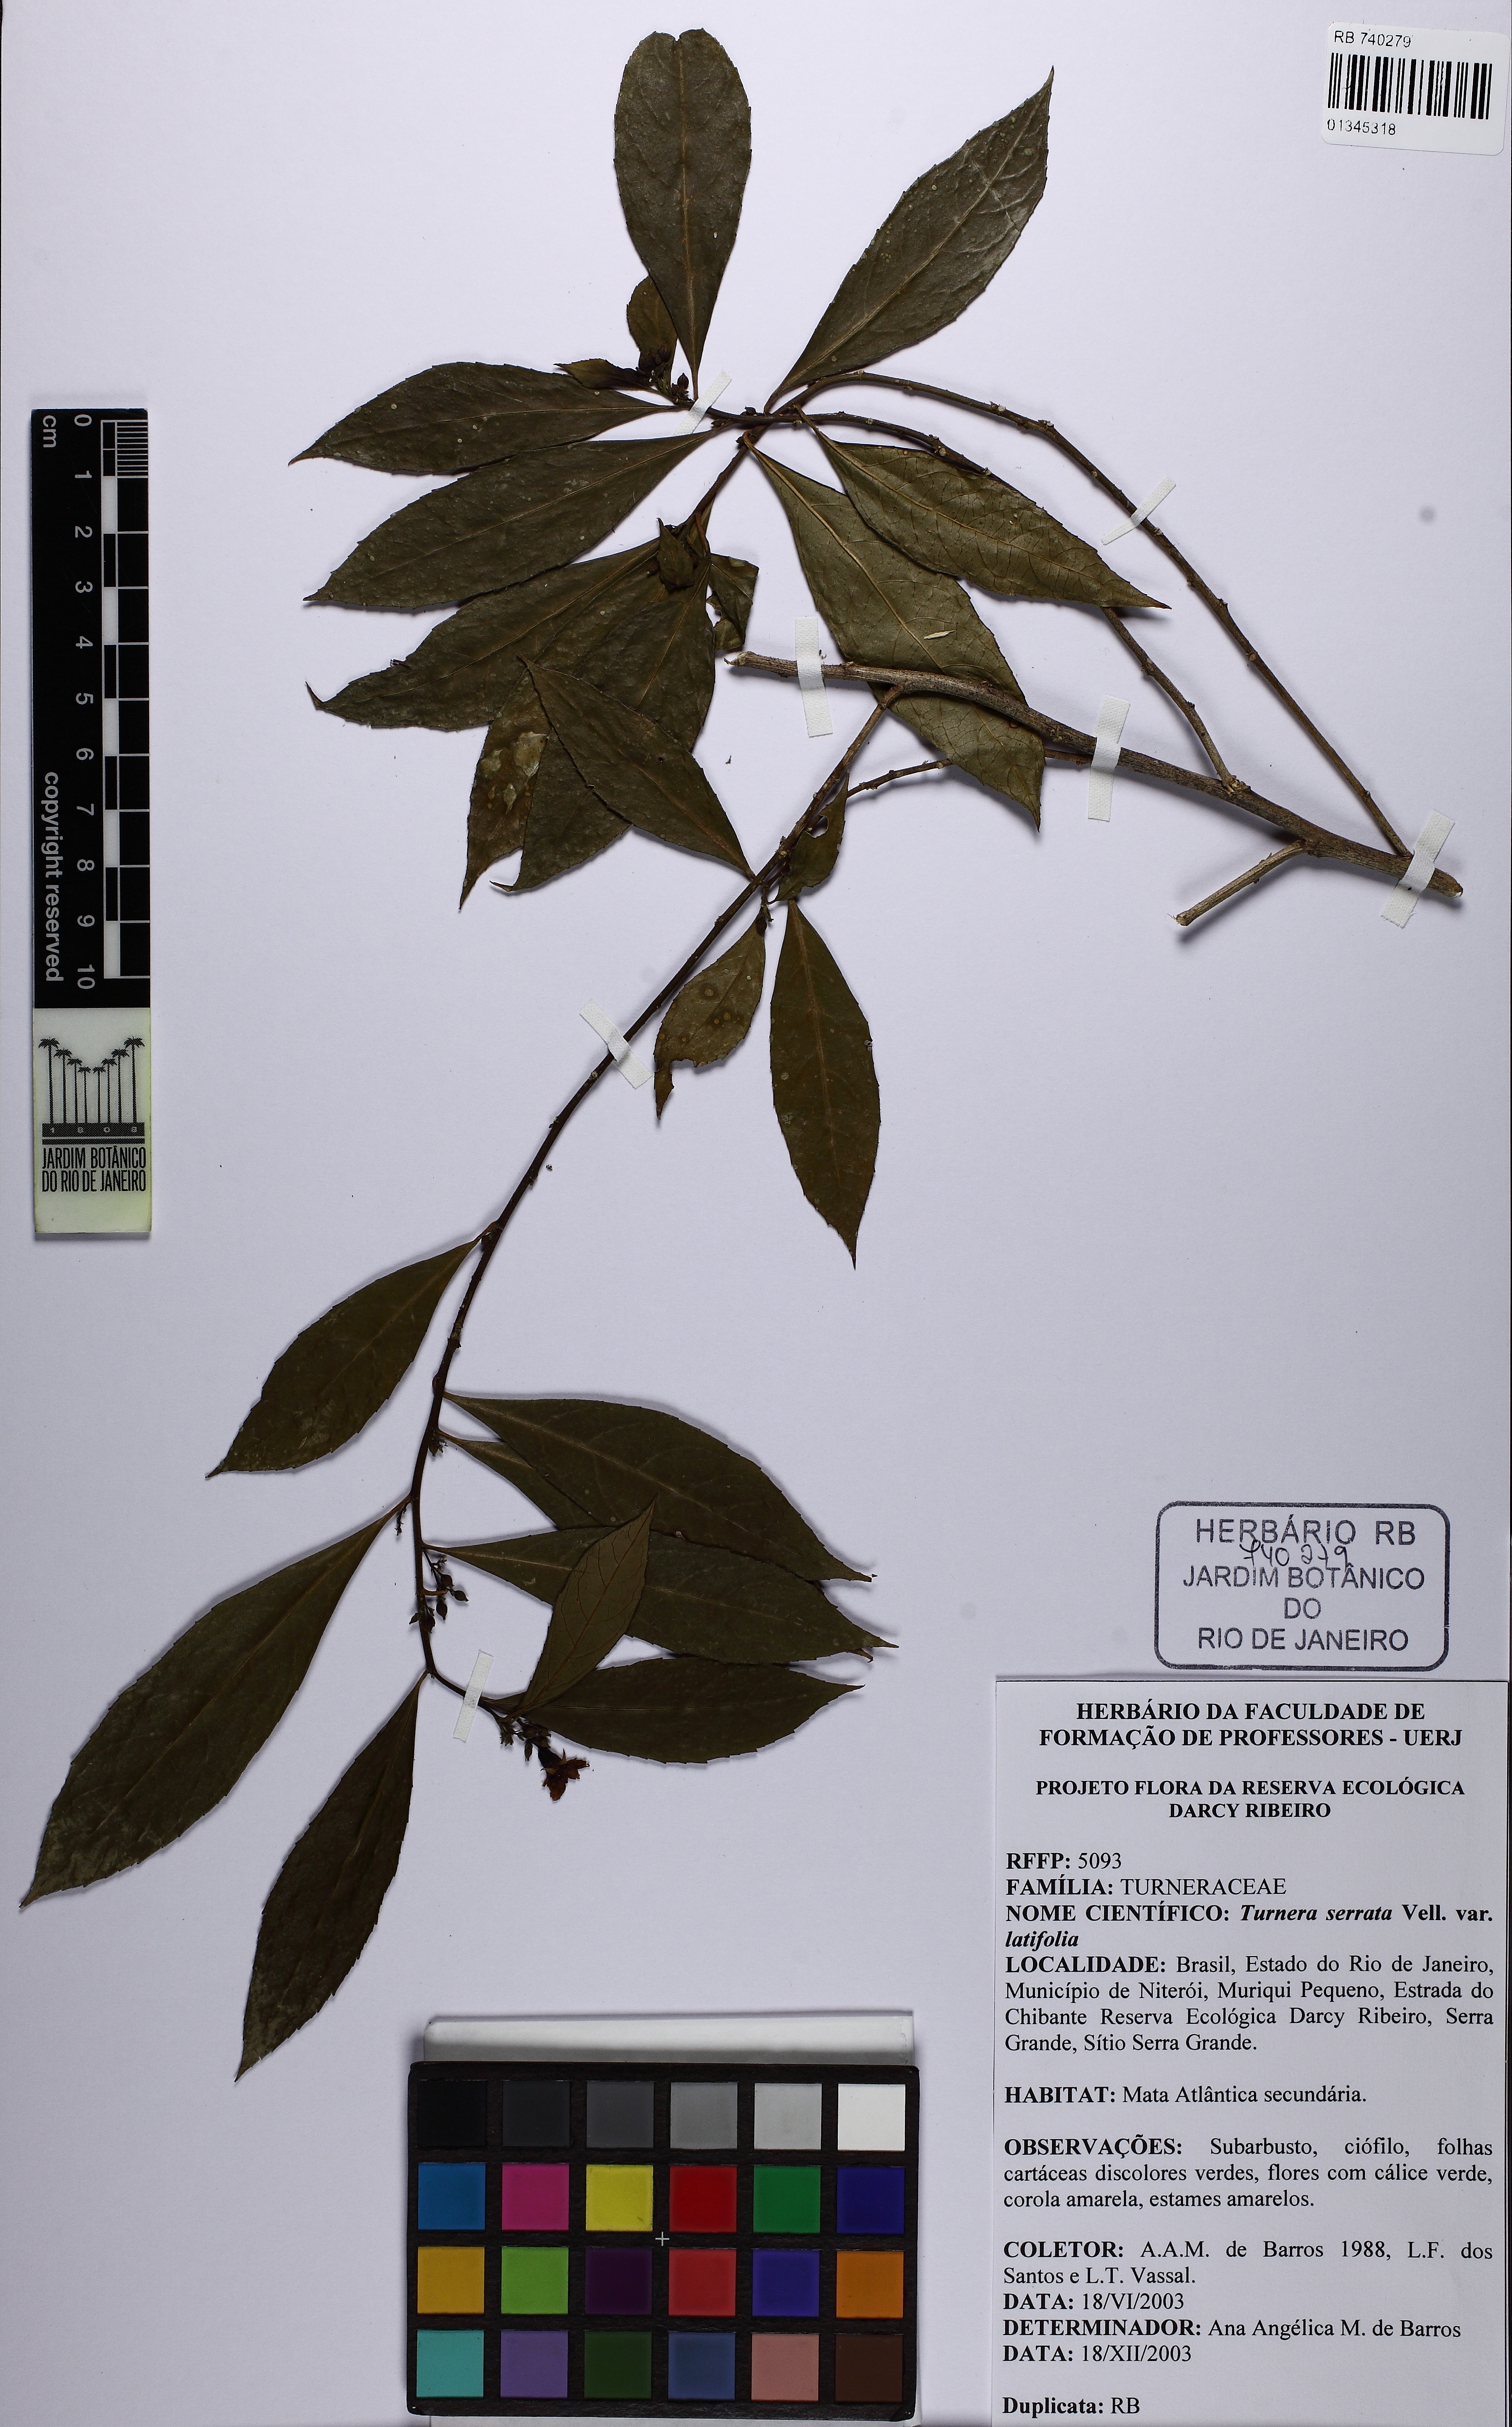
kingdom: Plantae
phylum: Tracheophyta
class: Magnoliopsida
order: Malpighiales
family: Turneraceae
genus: Turnera
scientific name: Turnera serrata
